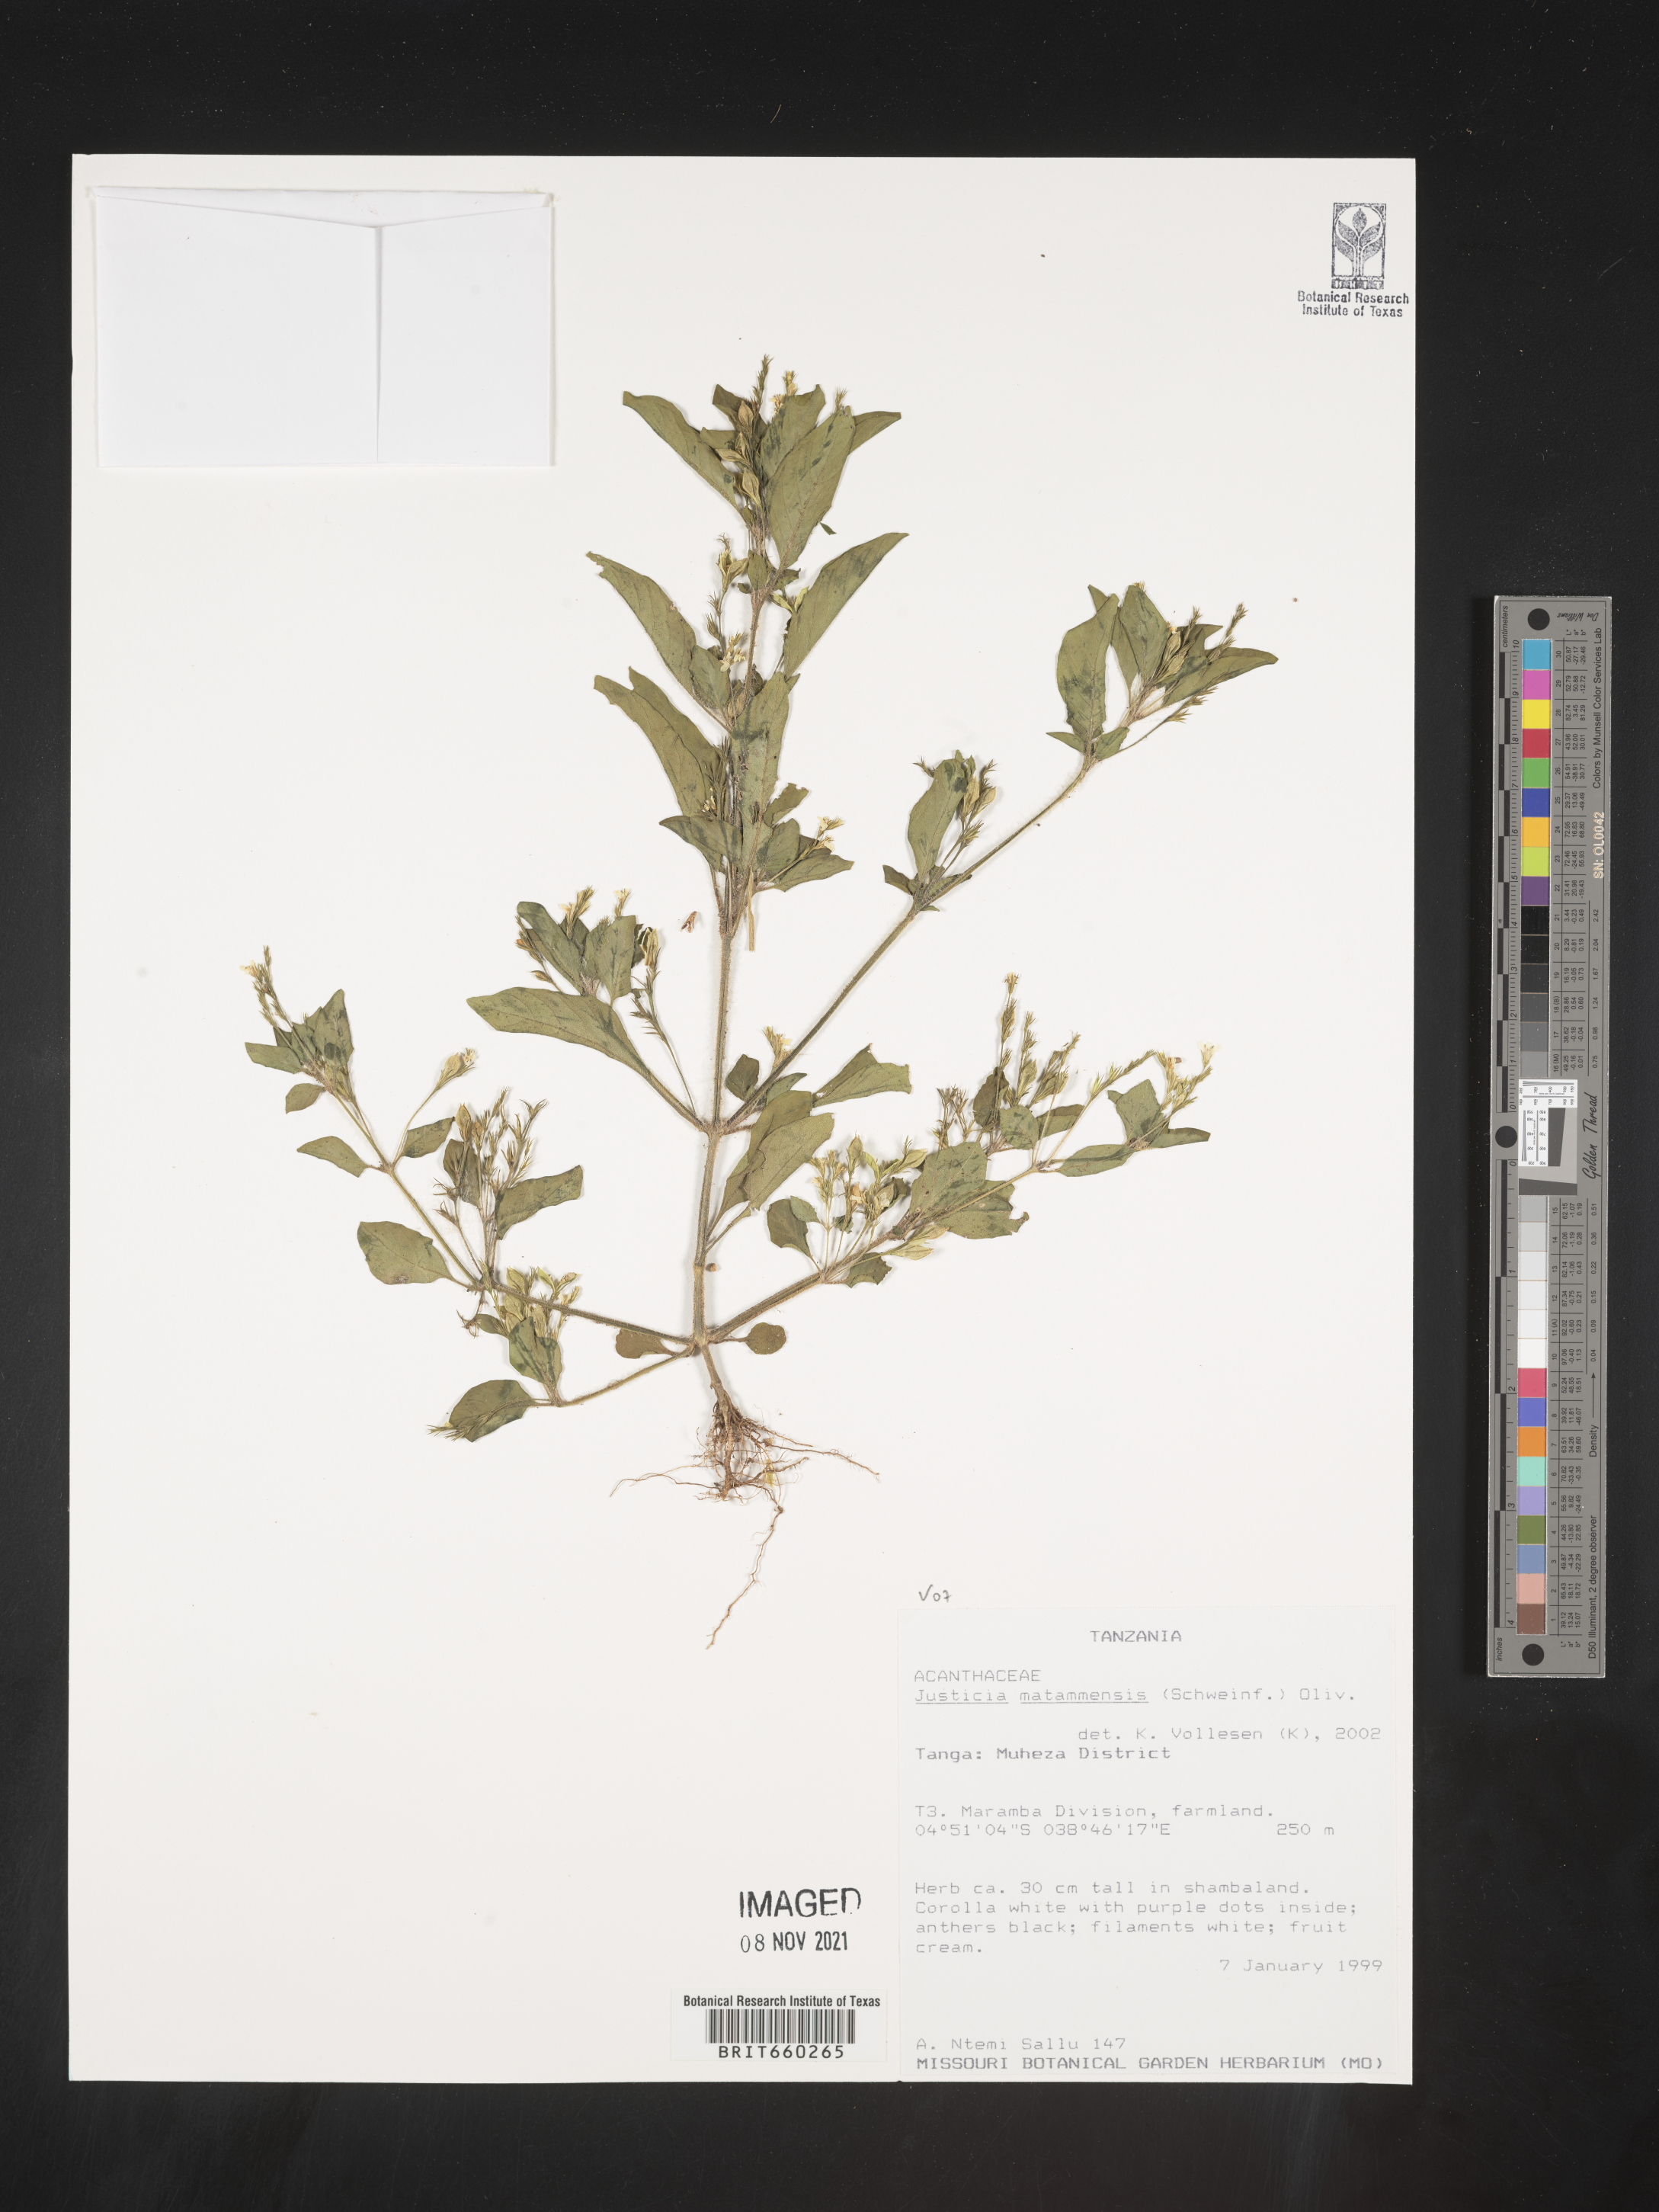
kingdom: Plantae
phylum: Tracheophyta
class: Magnoliopsida
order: Lamiales
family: Acanthaceae
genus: Justicia
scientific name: Justicia
